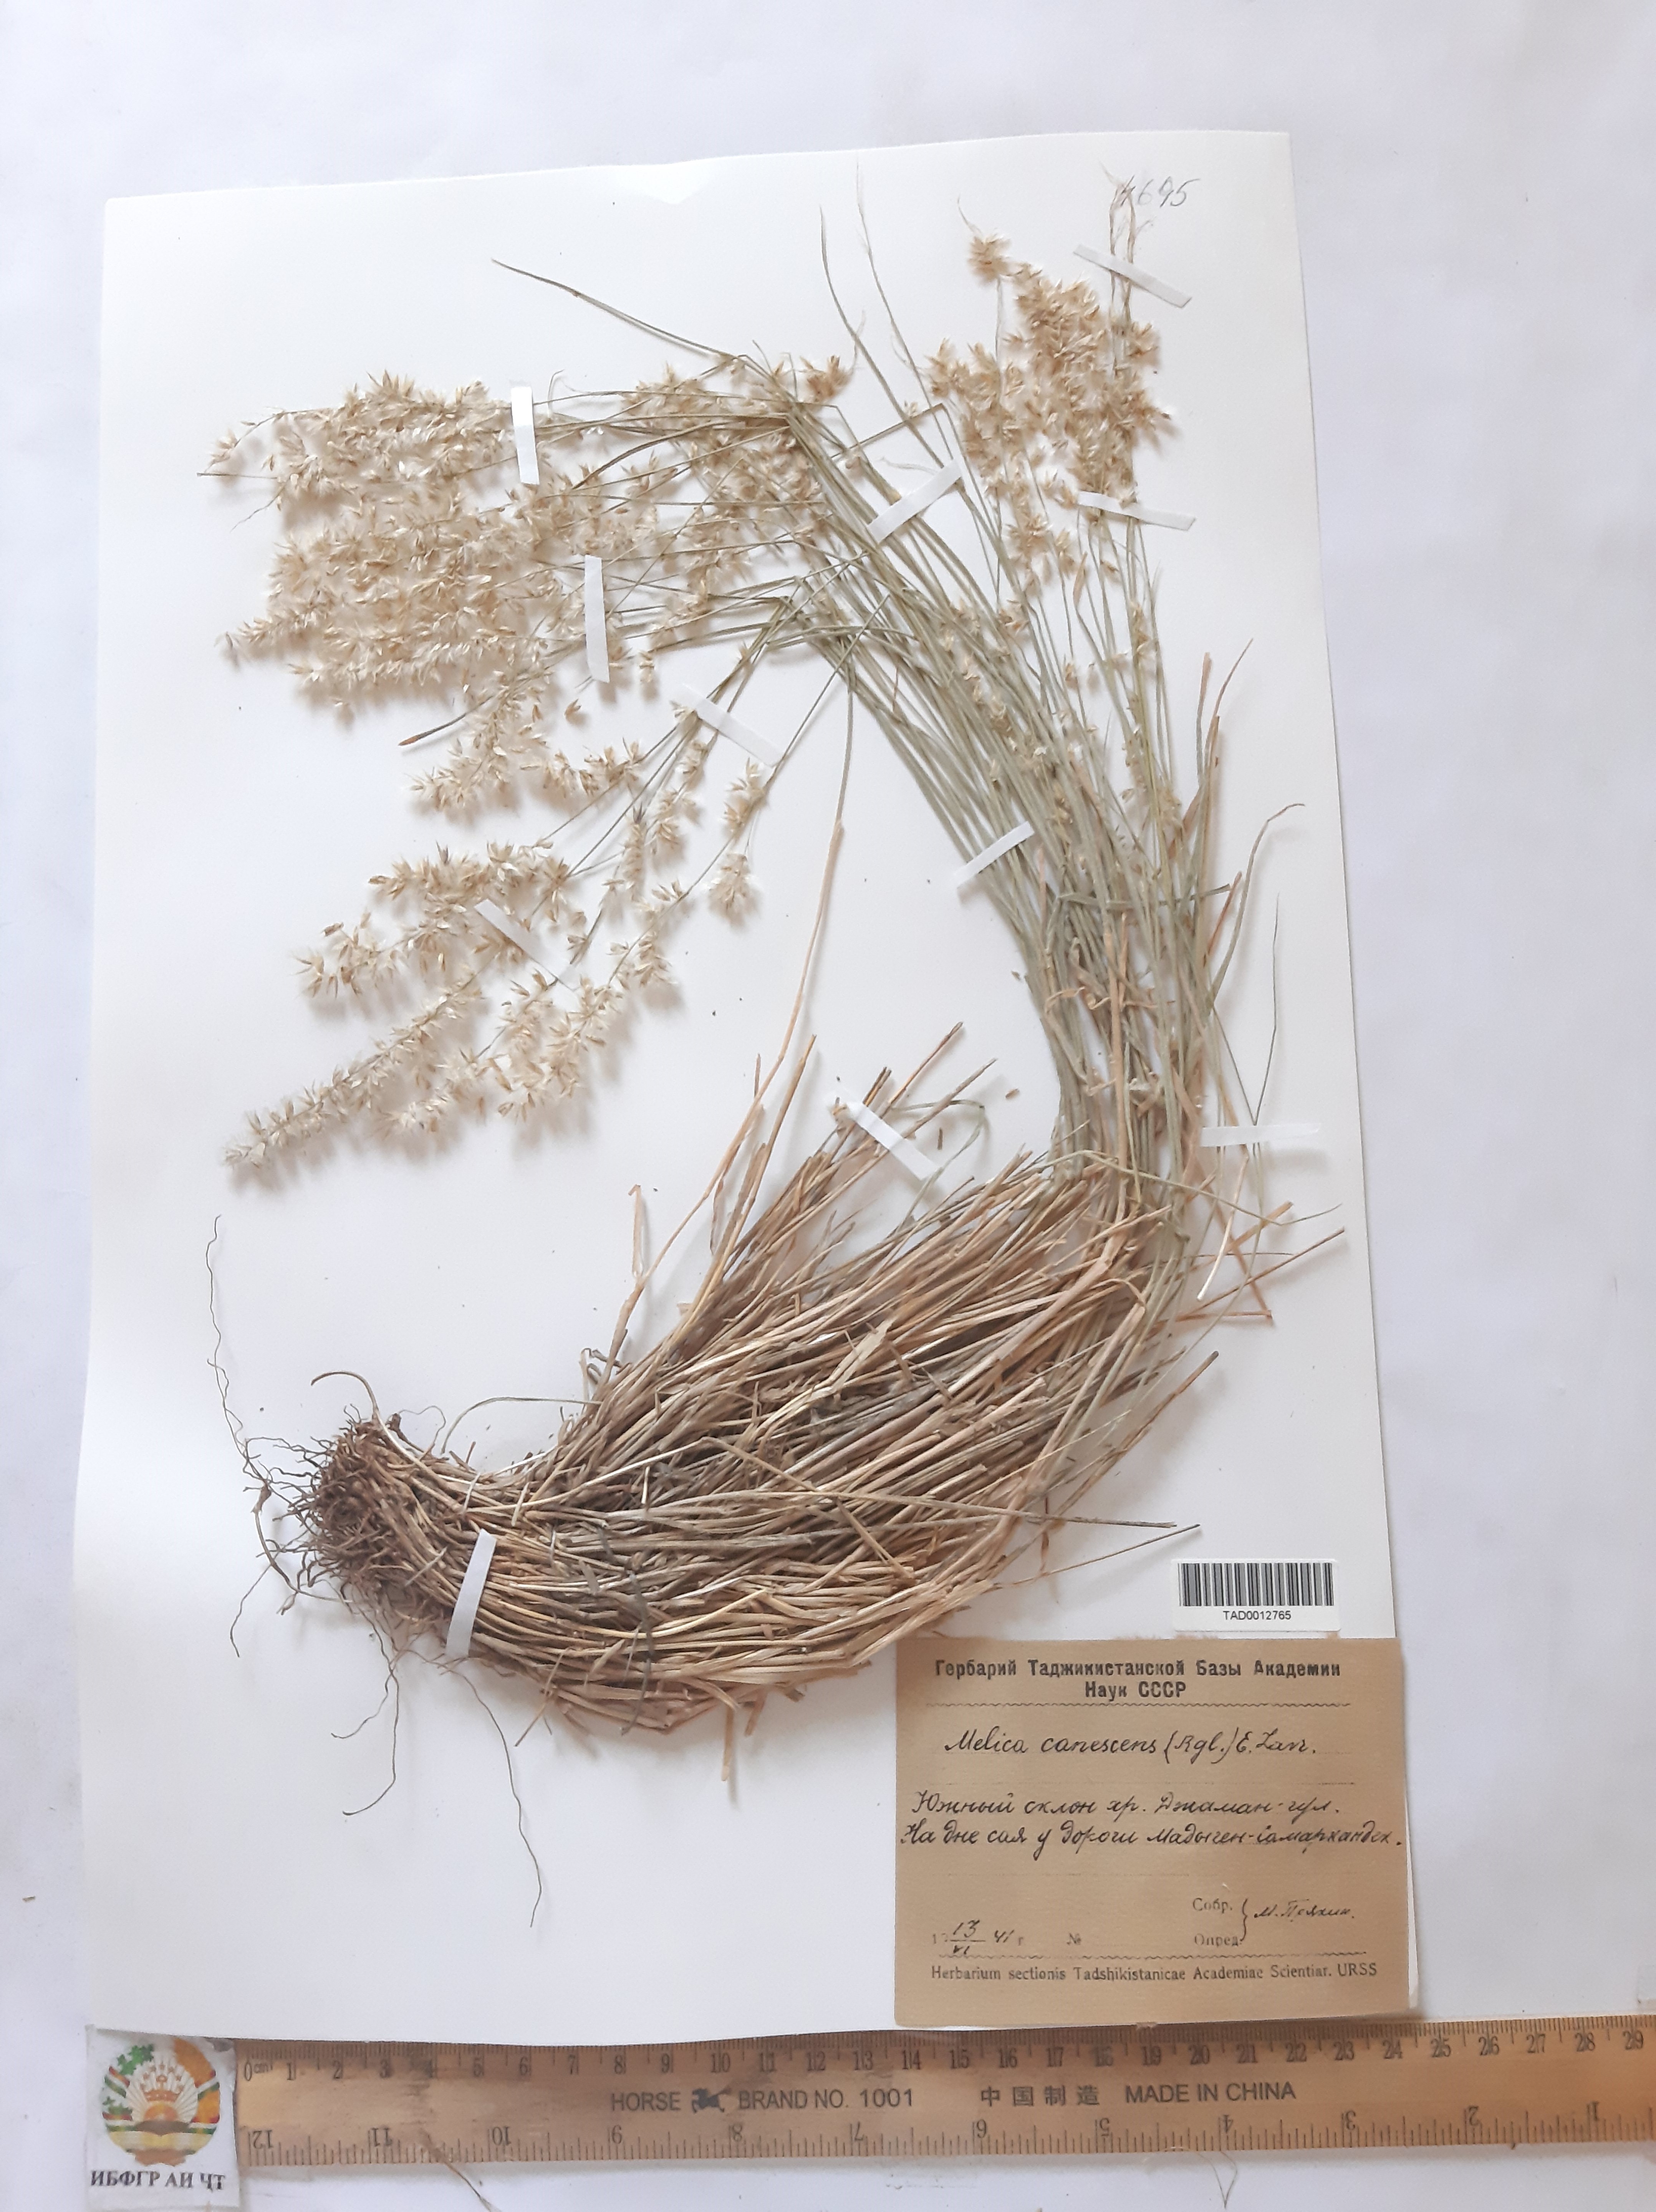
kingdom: Plantae
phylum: Tracheophyta
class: Liliopsida
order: Poales
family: Poaceae
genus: Melica
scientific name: Melica persica
